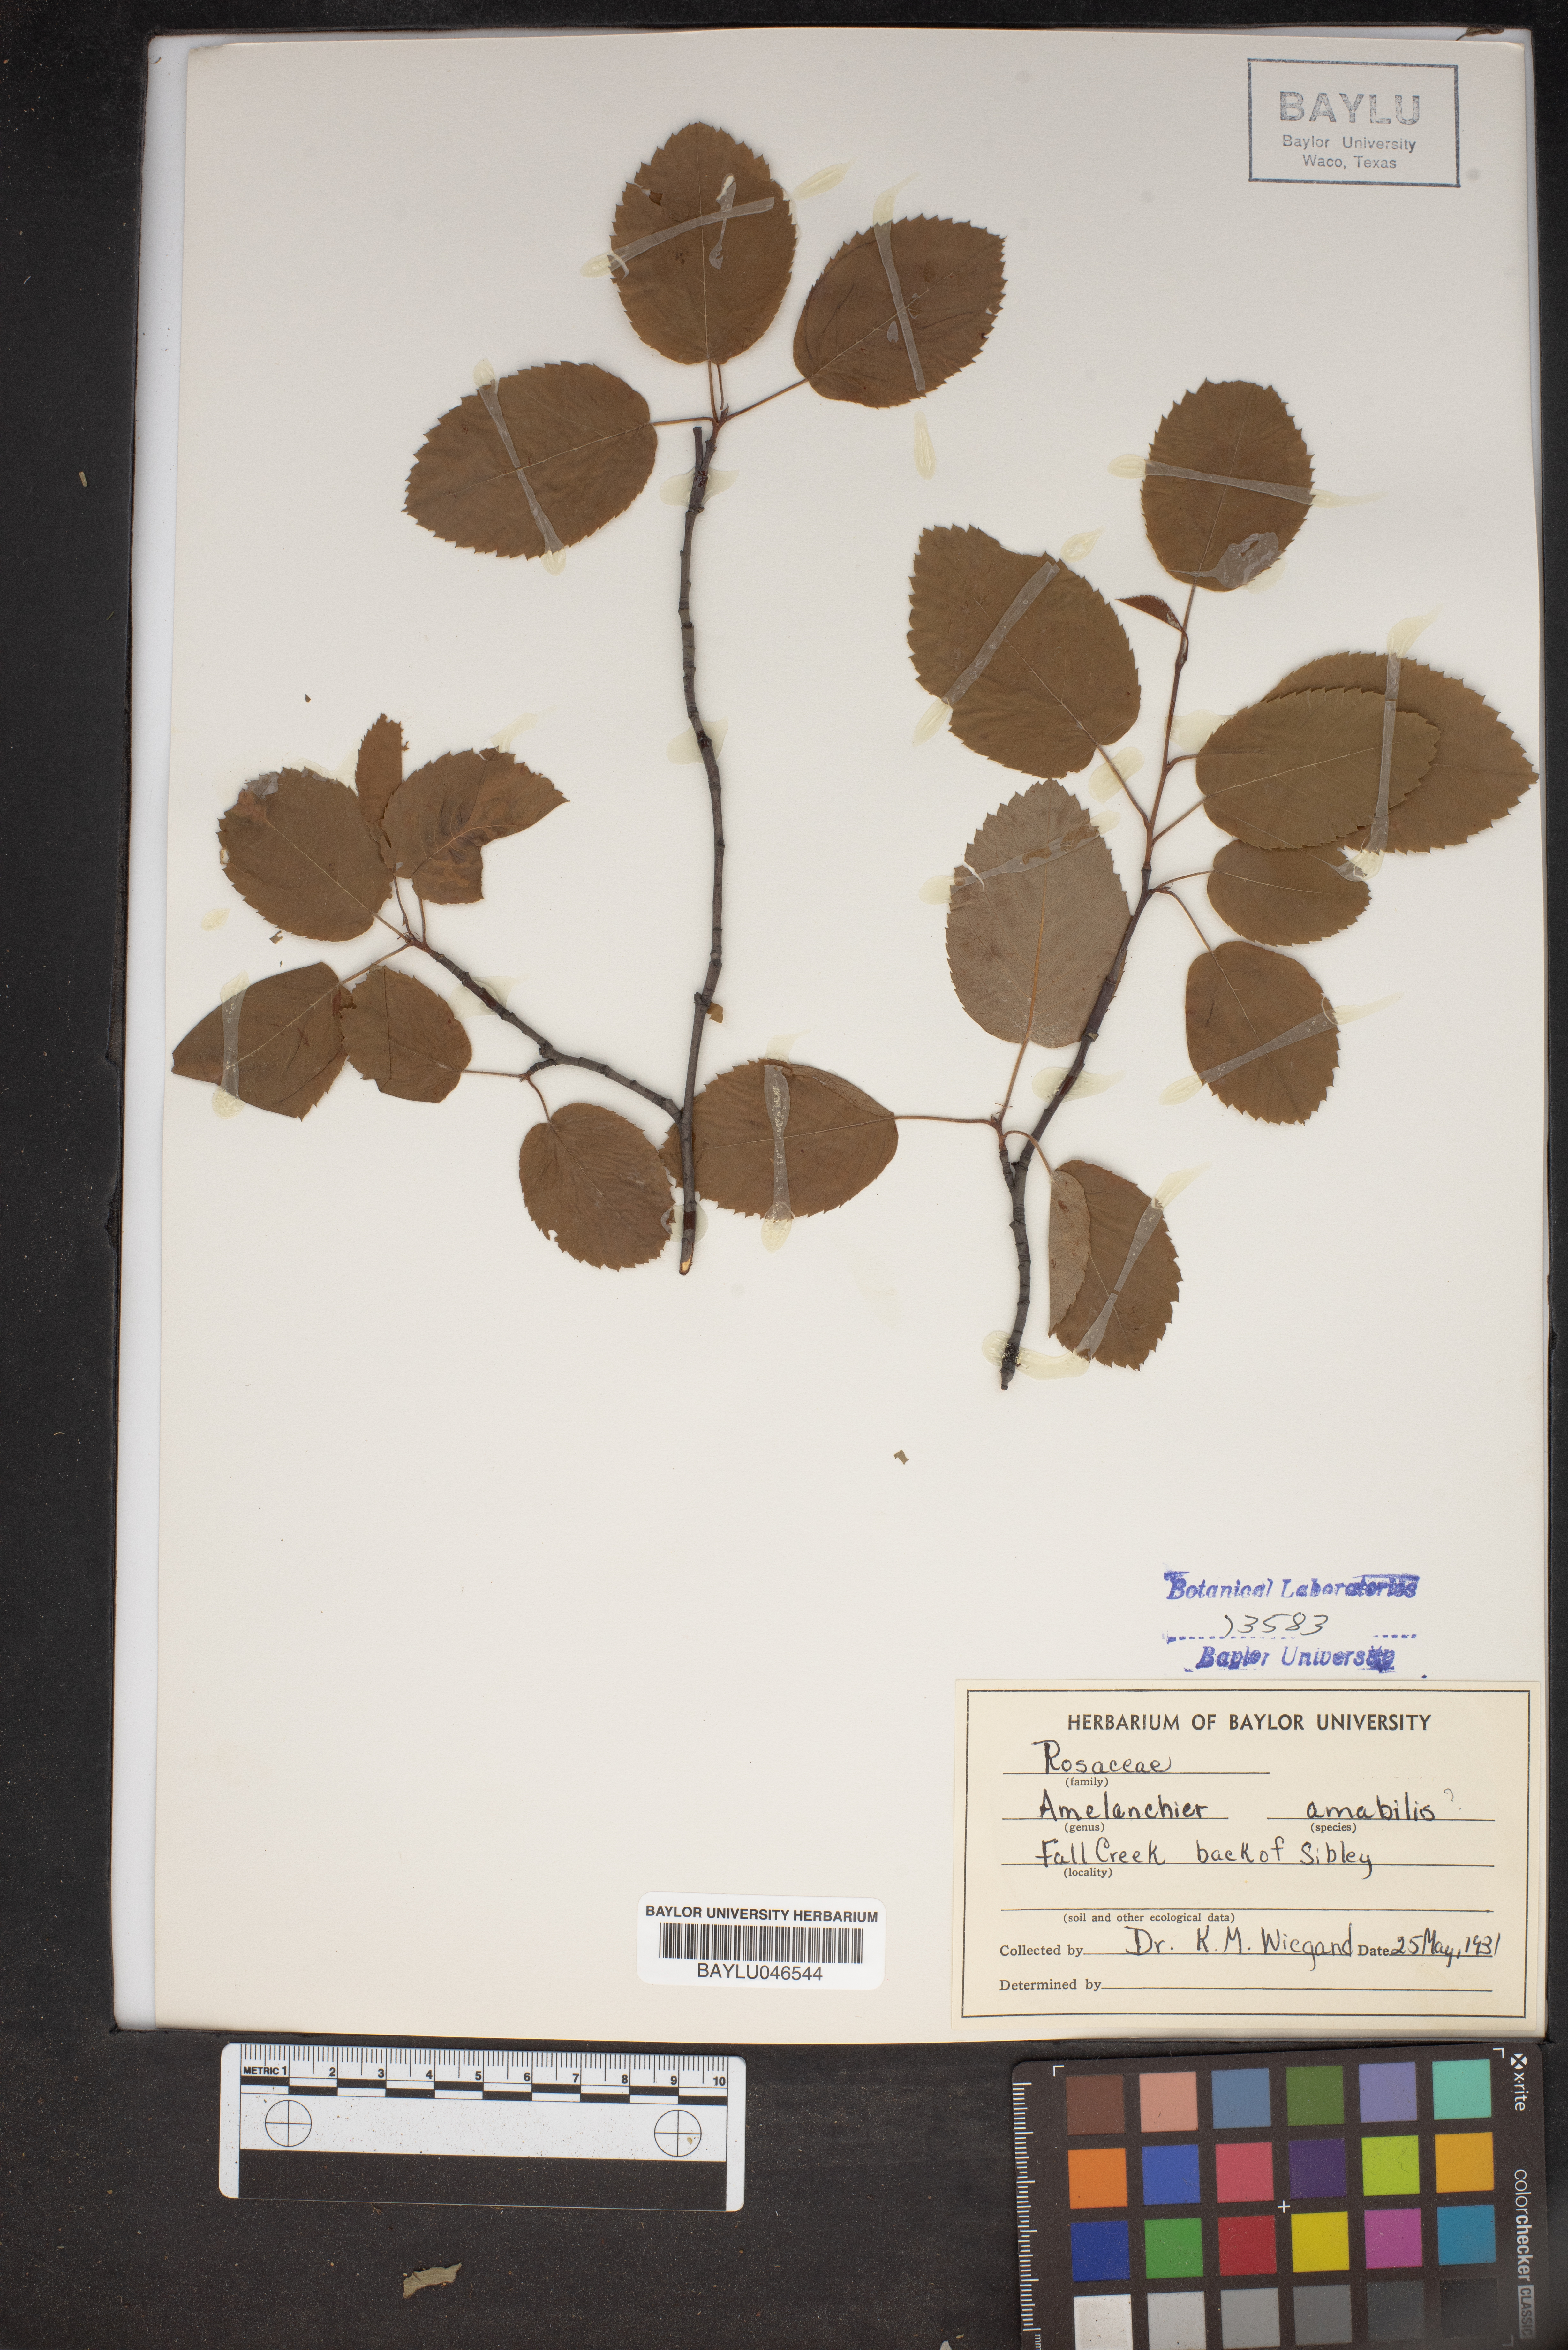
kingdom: Plantae
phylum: Tracheophyta
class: Magnoliopsida
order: Rosales
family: Rosaceae
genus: Amelanchier
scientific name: Amelanchier sanguinea
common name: Huron serviceberry
